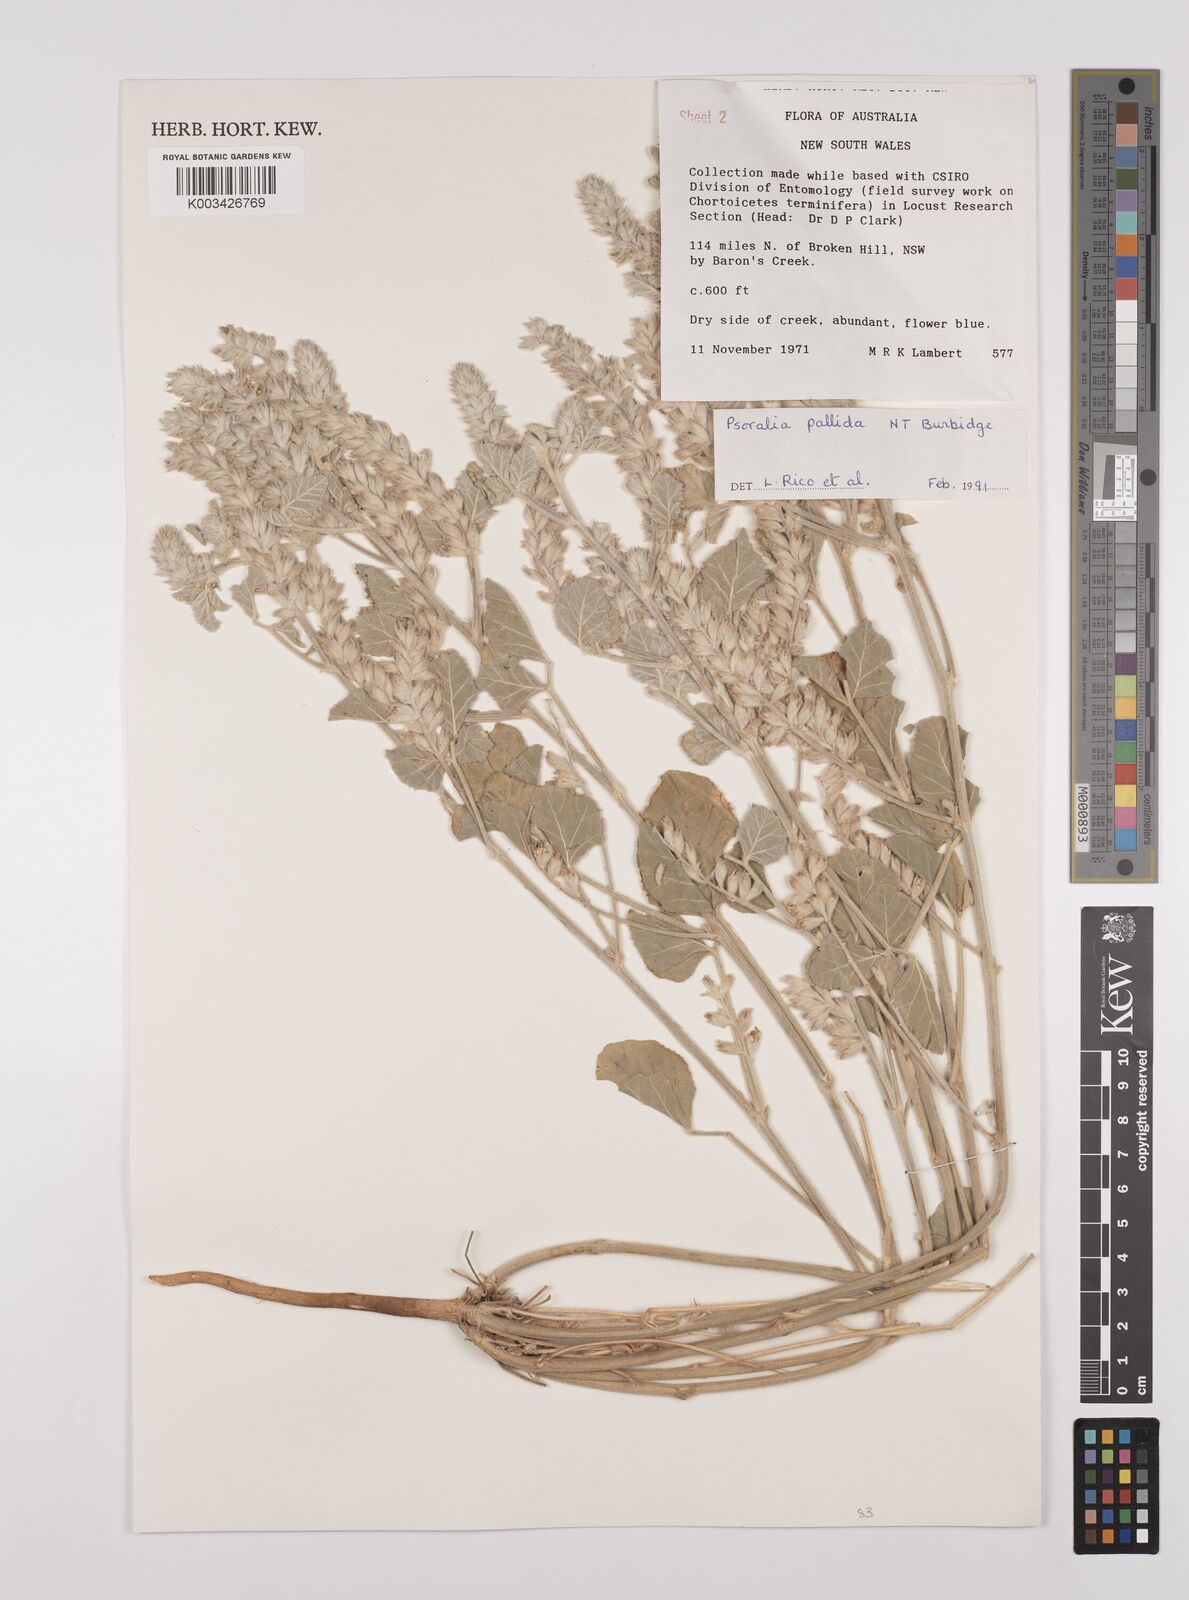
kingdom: Plantae
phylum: Tracheophyta
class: Magnoliopsida
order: Fabales
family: Fabaceae
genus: Cullen
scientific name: Cullen pallidum
